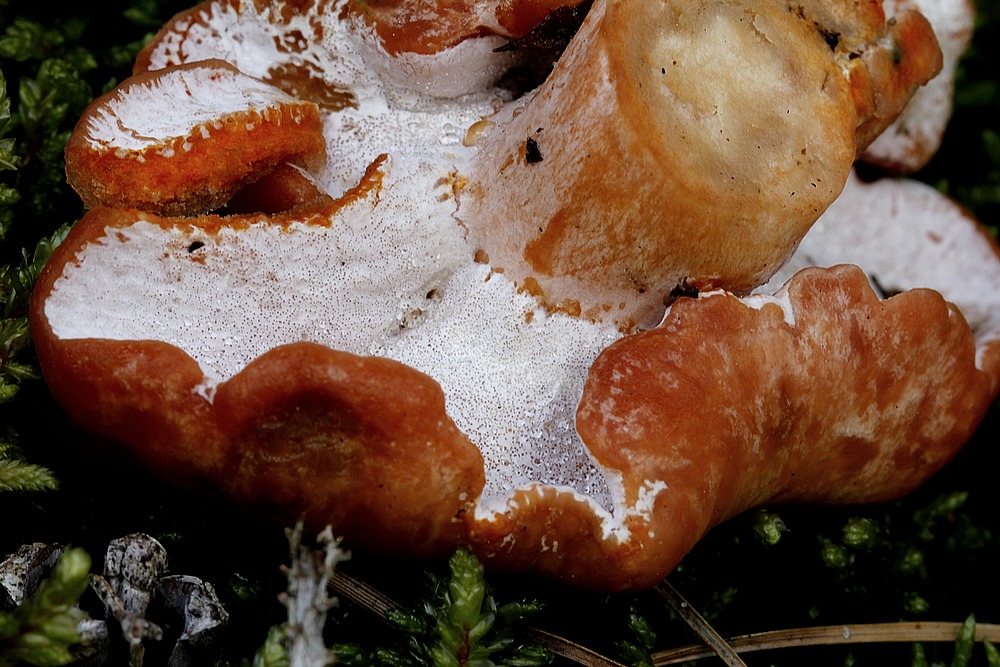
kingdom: Fungi
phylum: Ascomycota
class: Sordariomycetes
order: Hypocreales
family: Hypocreaceae
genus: Hypomyces
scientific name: Hypomyces lateritius
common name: mælkehat-snylteskorpe
